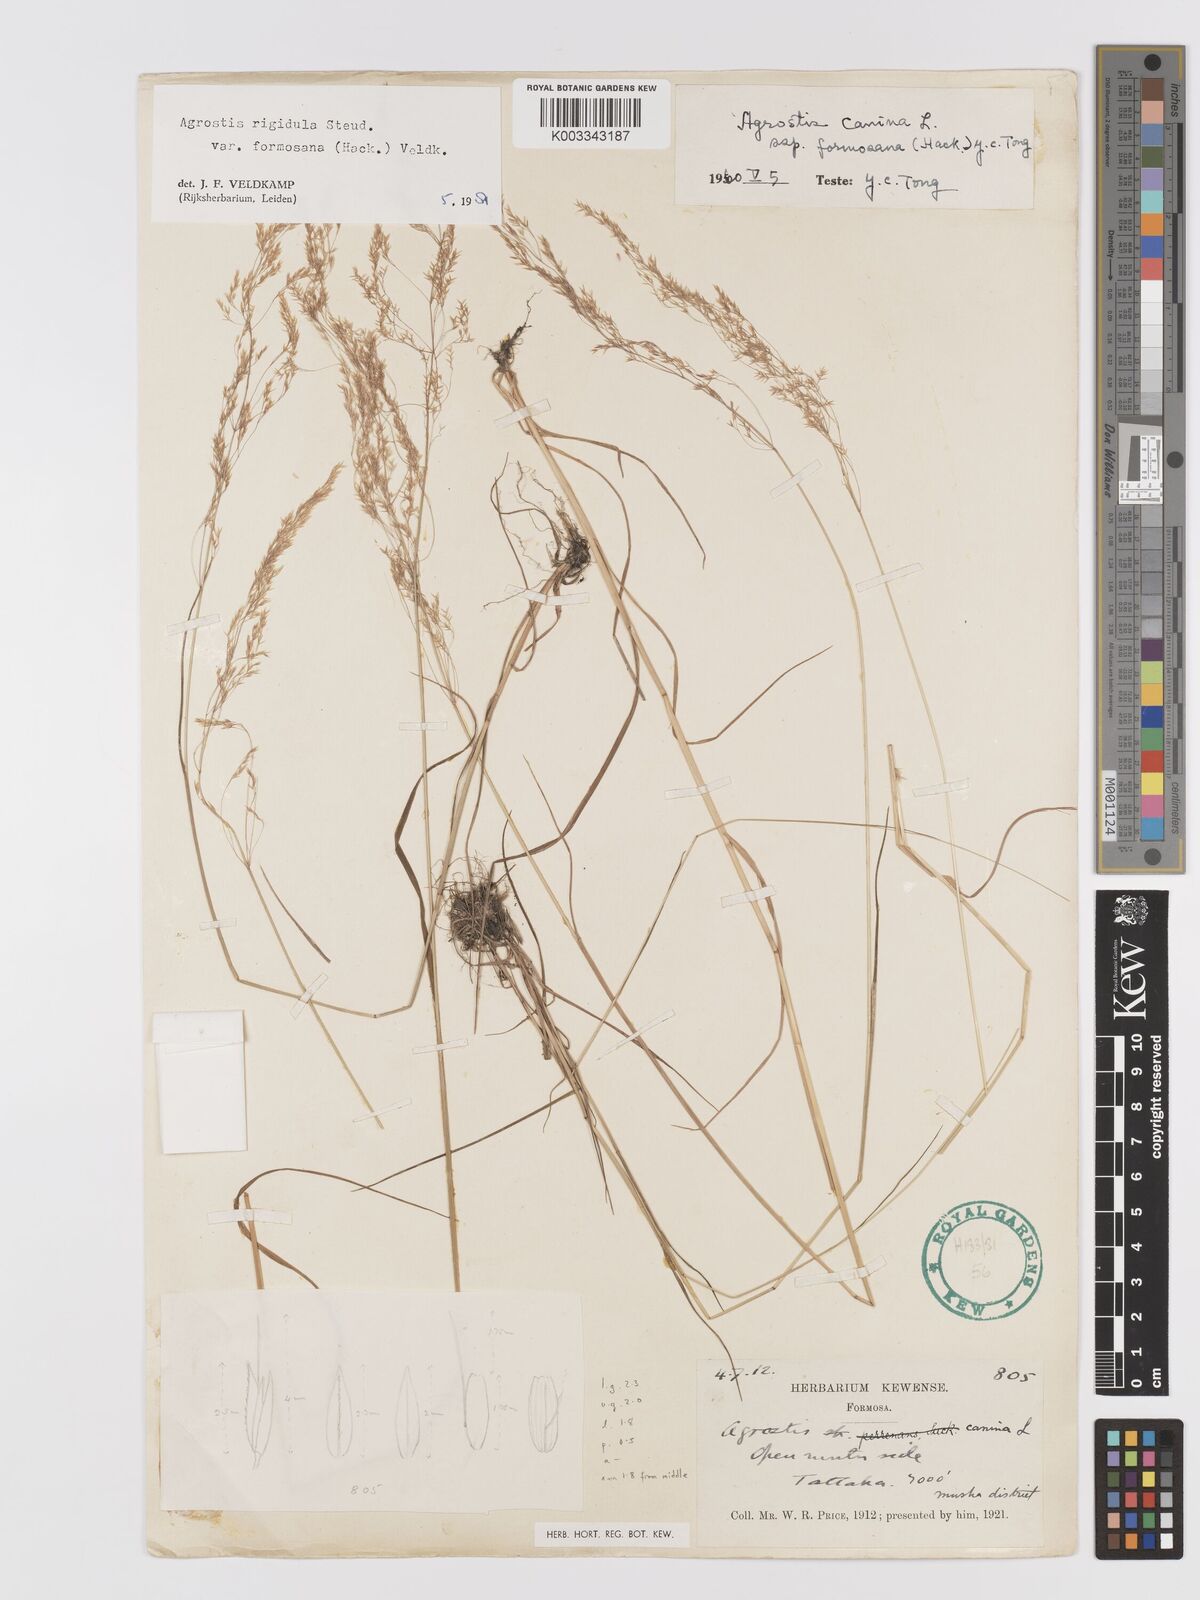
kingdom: Plantae
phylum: Tracheophyta
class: Liliopsida
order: Poales
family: Poaceae
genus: Agrostis
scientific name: Agrostis infirma
